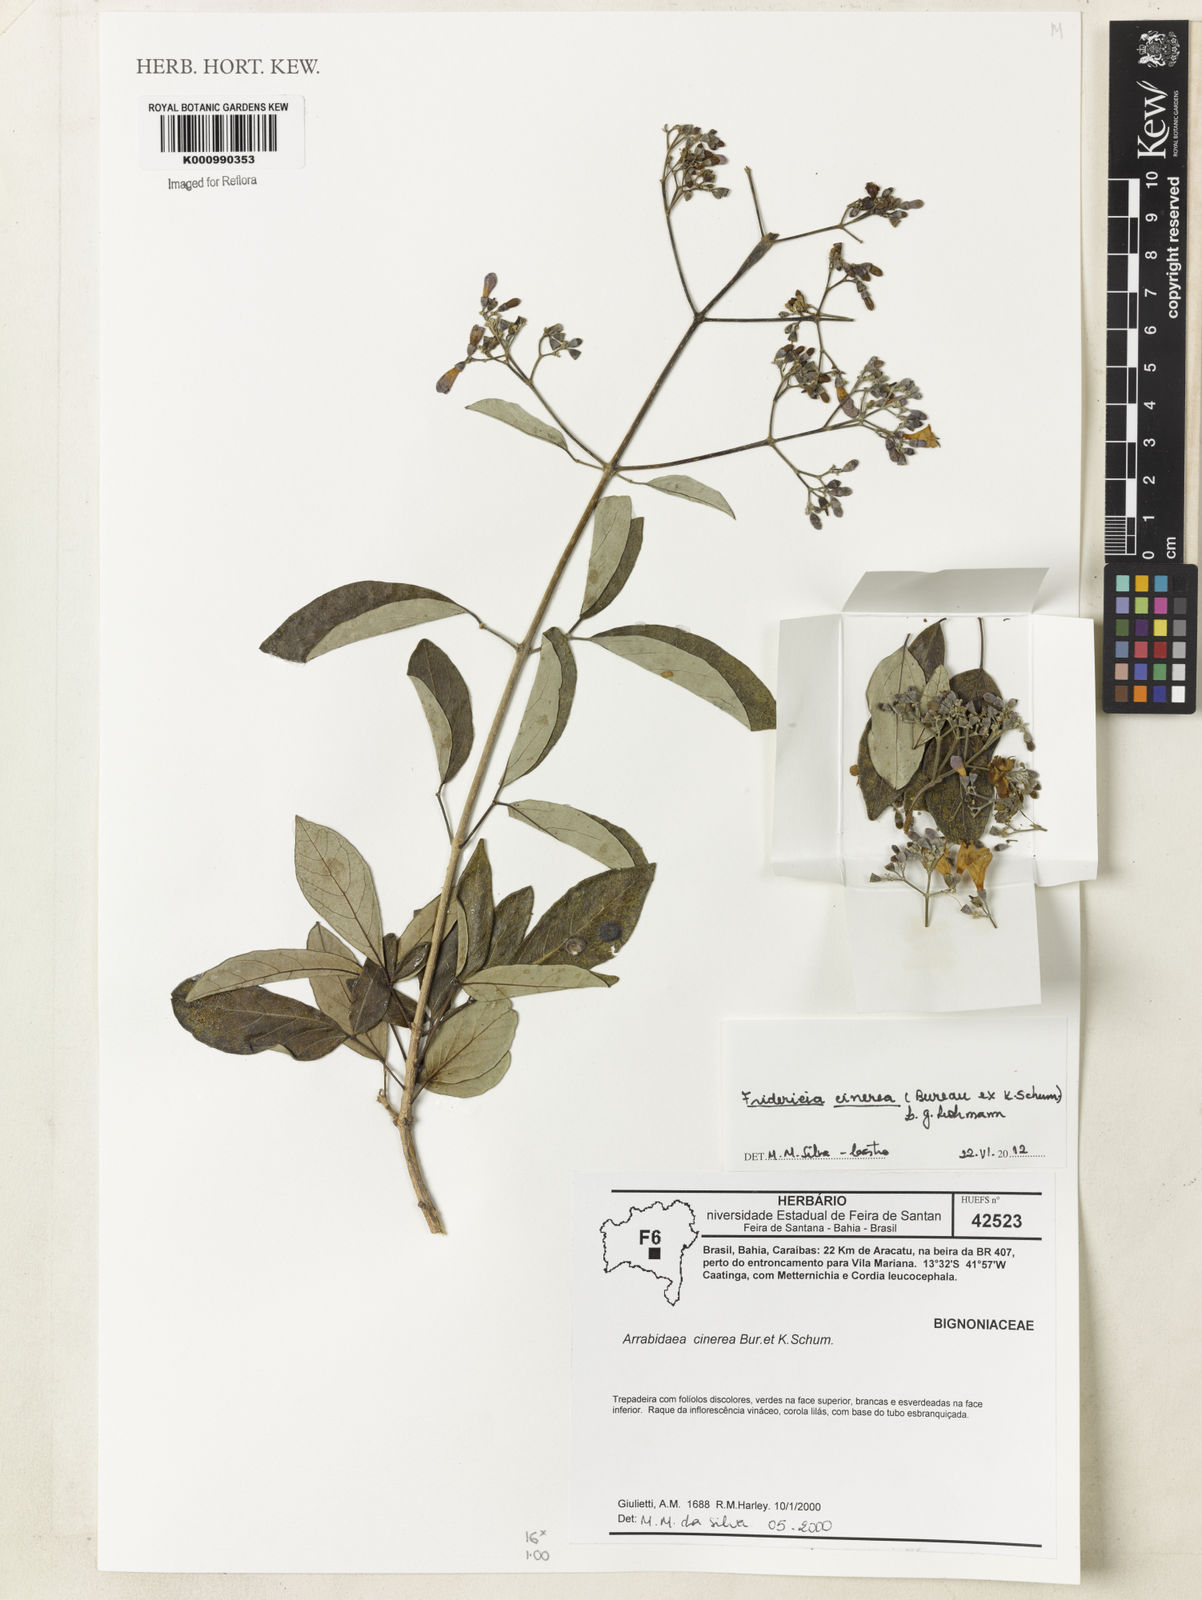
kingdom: Plantae
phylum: Tracheophyta
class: Magnoliopsida
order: Lamiales
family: Bignoniaceae
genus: Fridericia
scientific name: Fridericia cinerea
